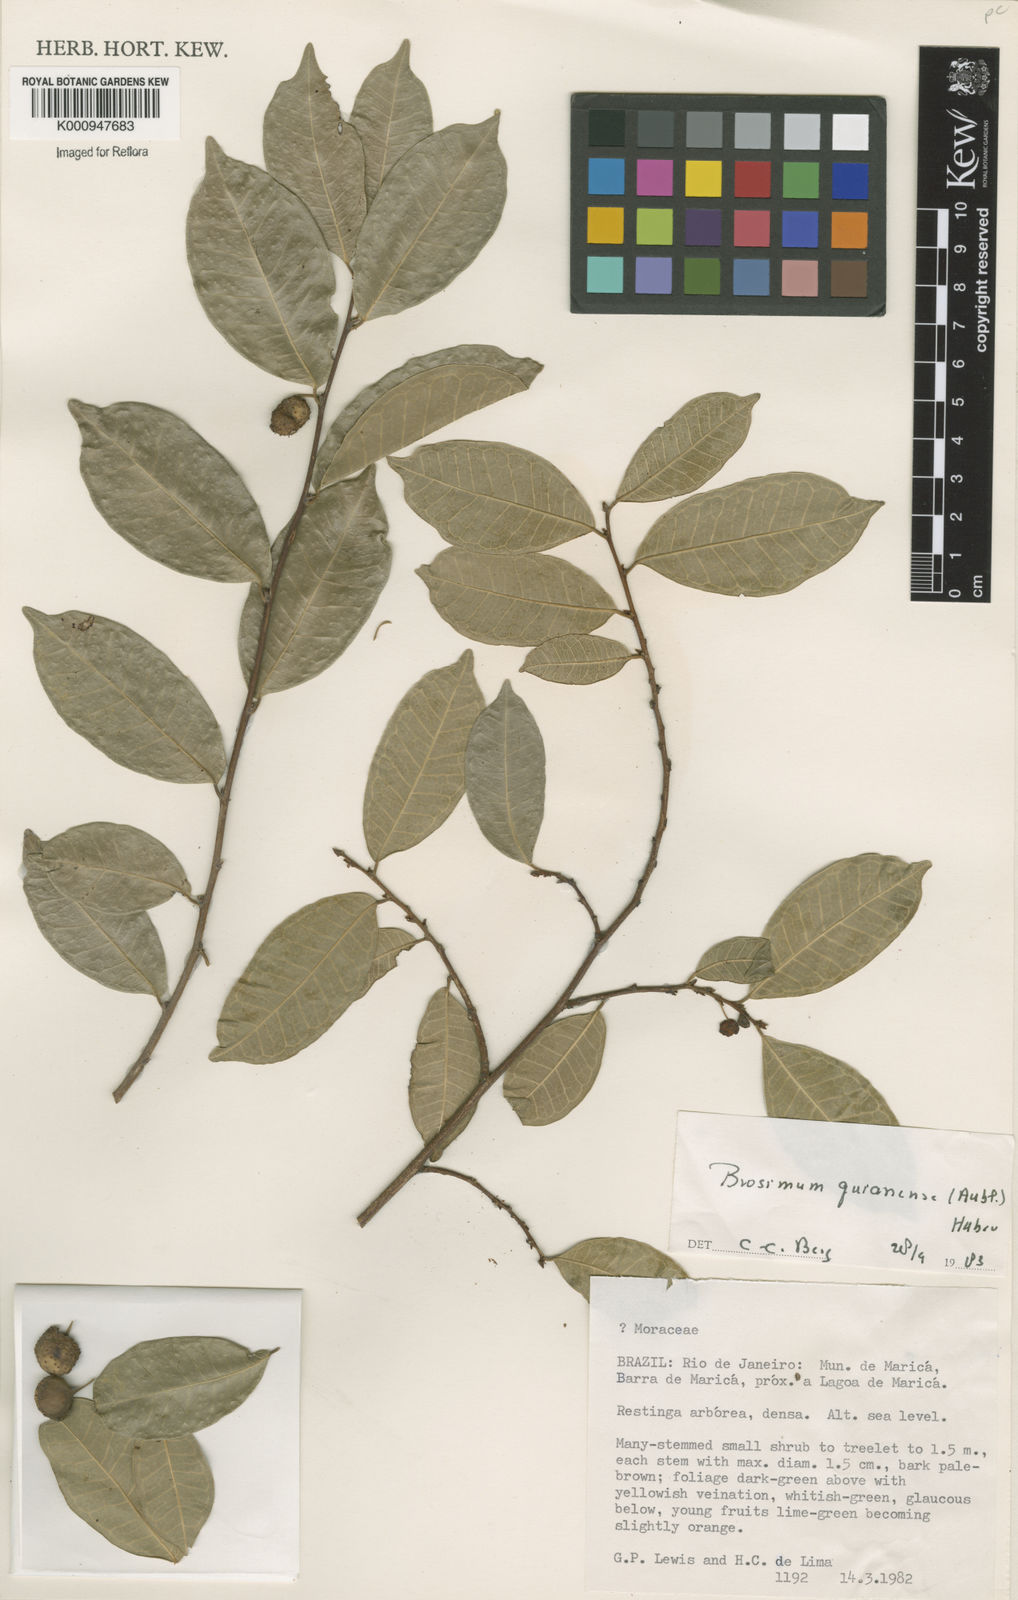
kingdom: Plantae
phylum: Tracheophyta
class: Magnoliopsida
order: Rosales
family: Moraceae
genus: Brosimum
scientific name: Brosimum
